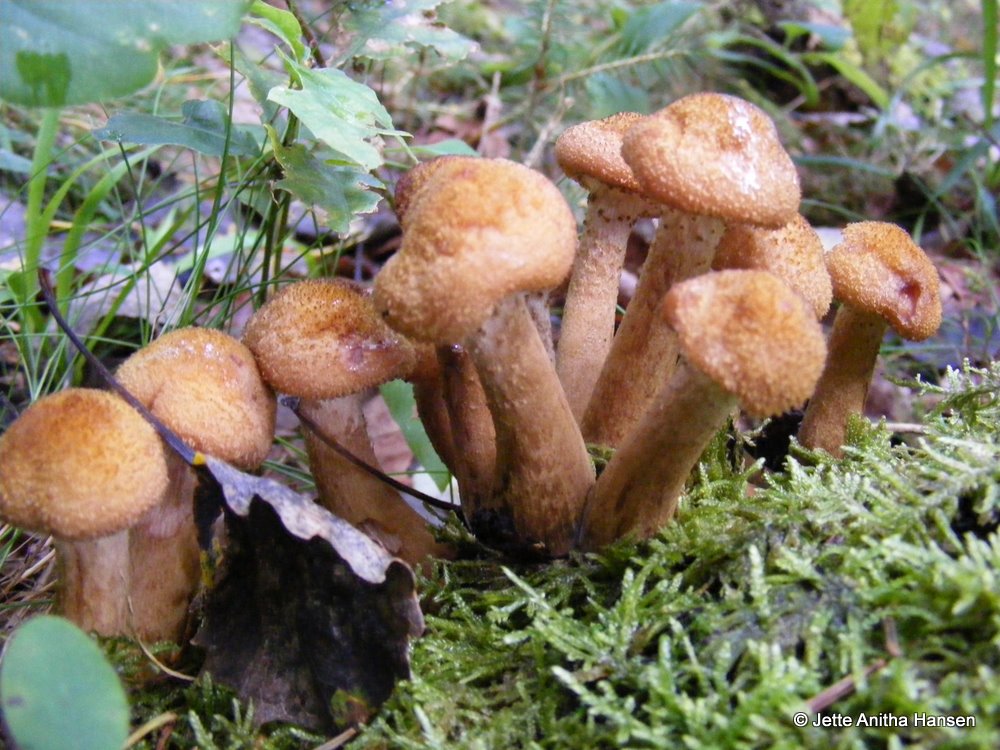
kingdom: Fungi
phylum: Basidiomycota
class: Agaricomycetes
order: Agaricales
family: Physalacriaceae
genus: Armillaria
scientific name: Armillaria lutea
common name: køllestokket honningsvamp
